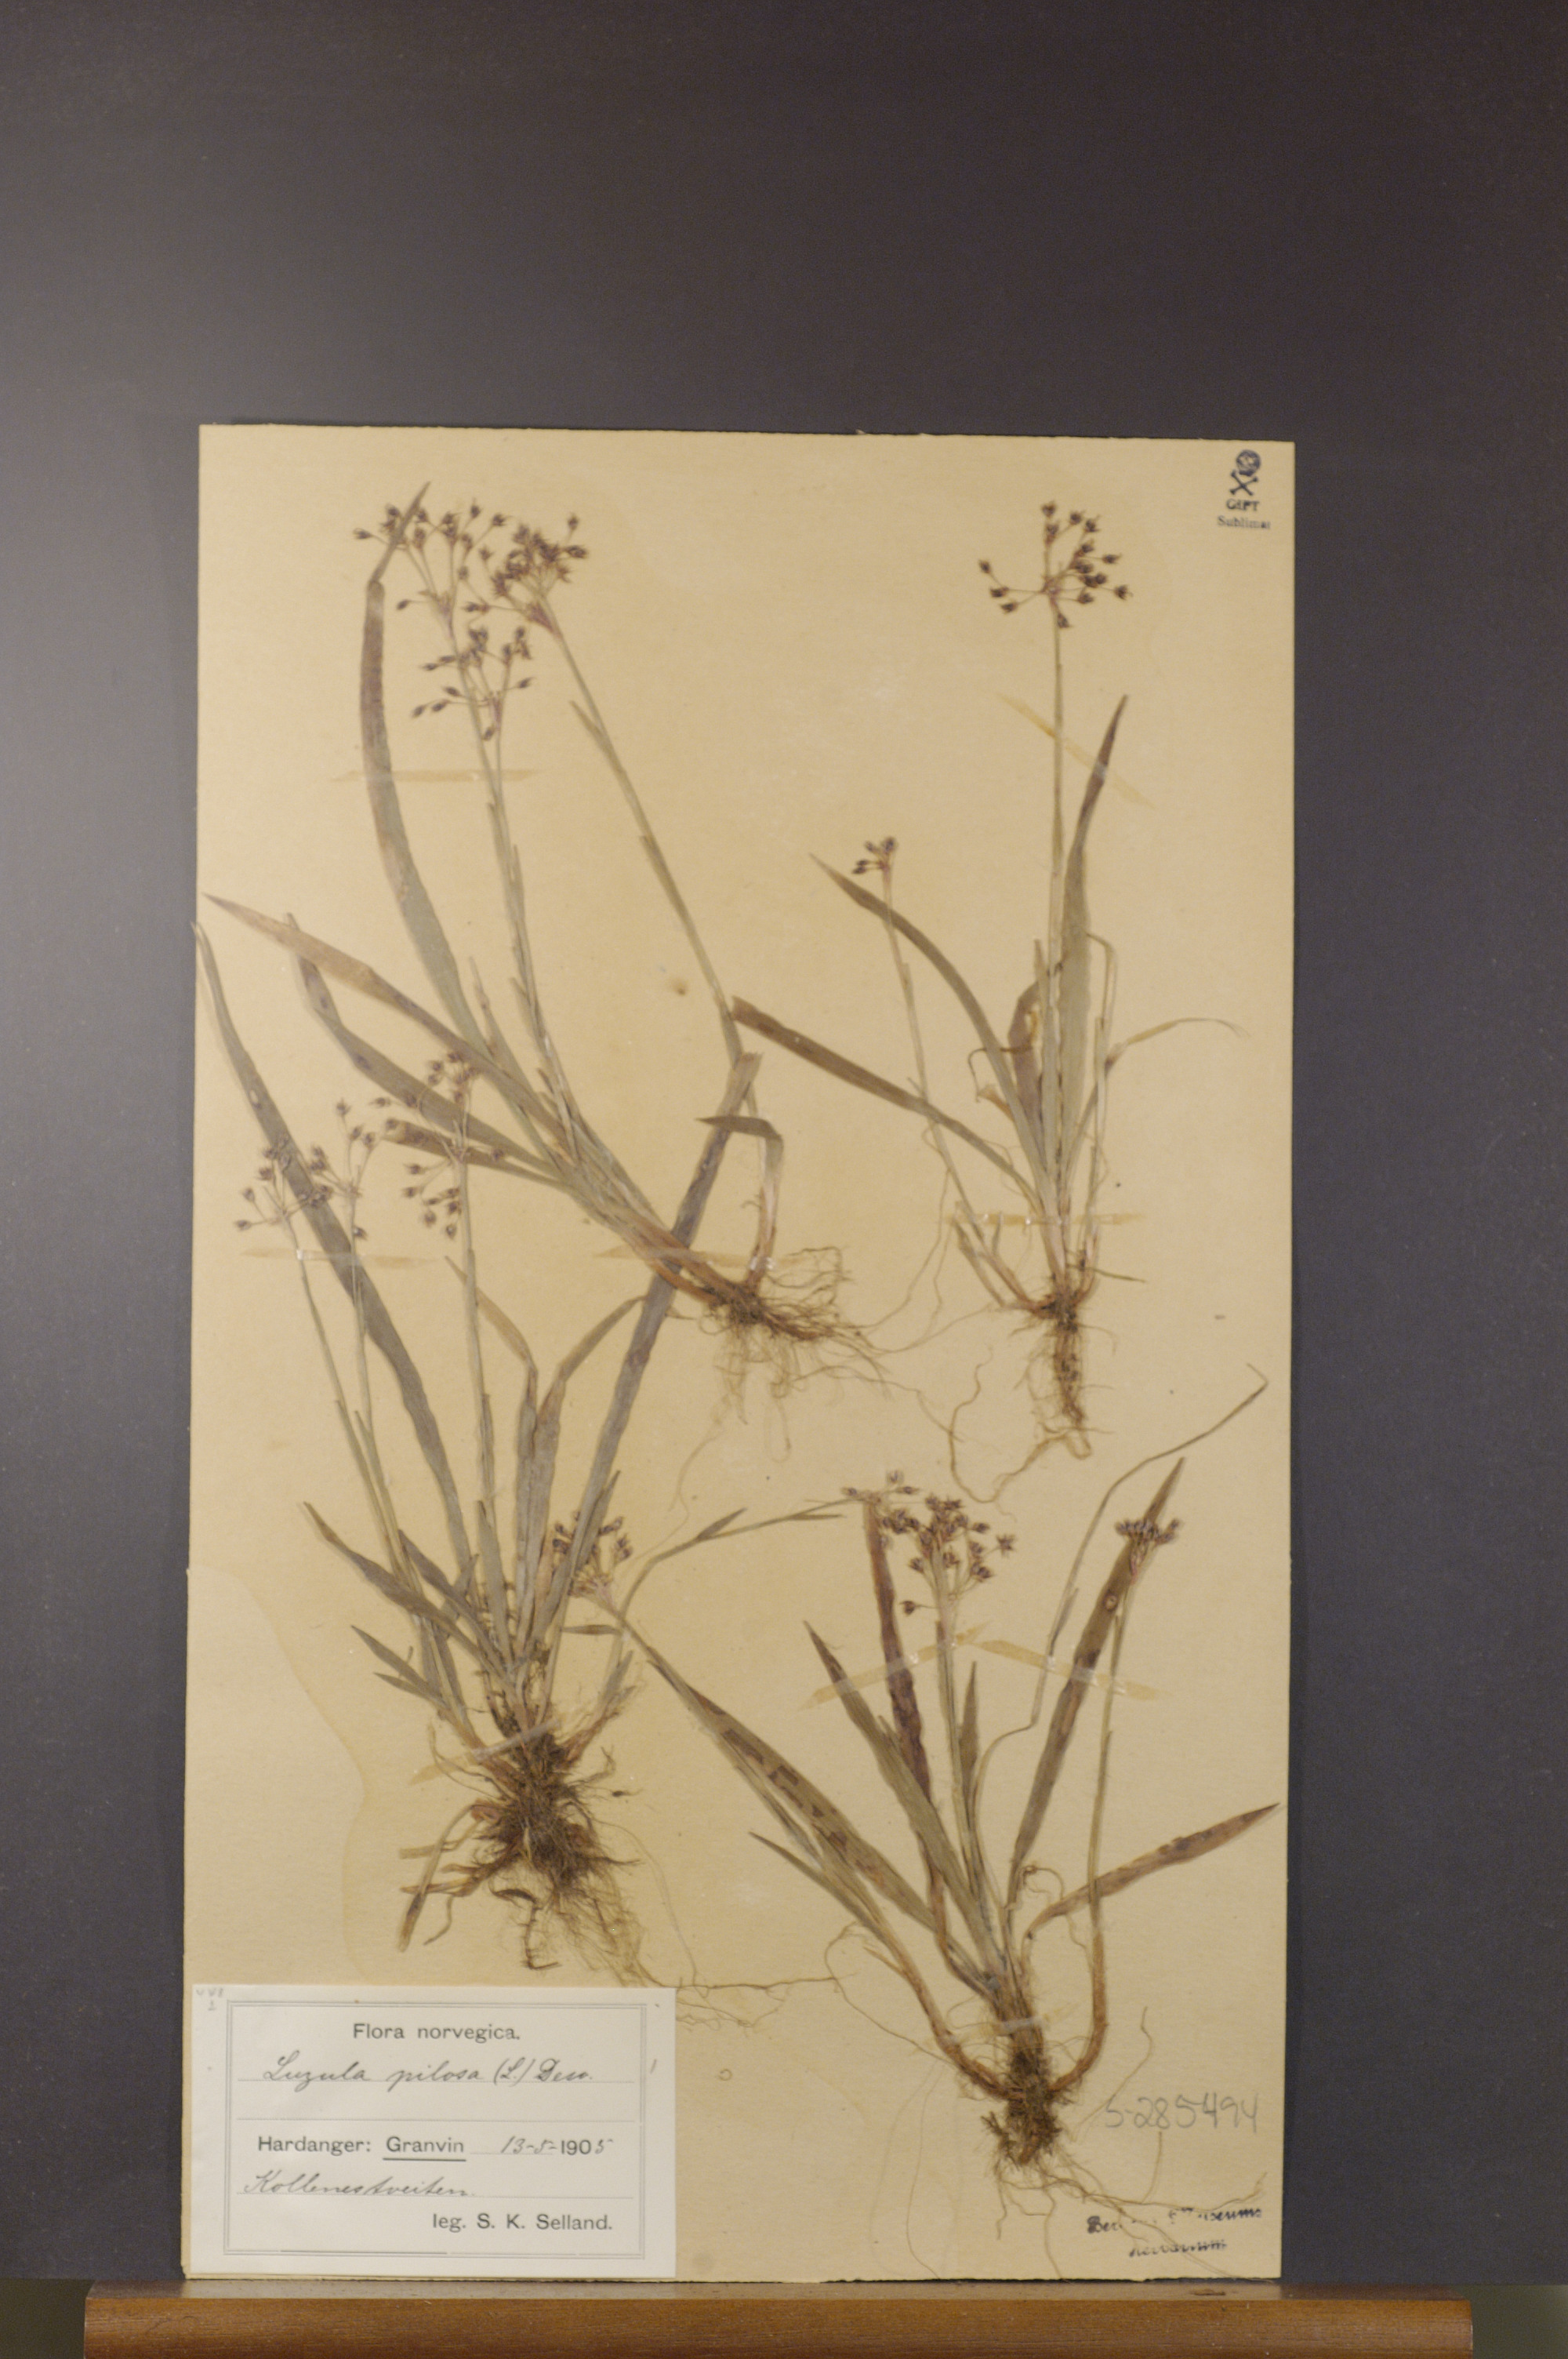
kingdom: Plantae
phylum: Tracheophyta
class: Liliopsida
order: Poales
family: Juncaceae
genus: Luzula
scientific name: Luzula pilosa
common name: Hairy wood-rush
